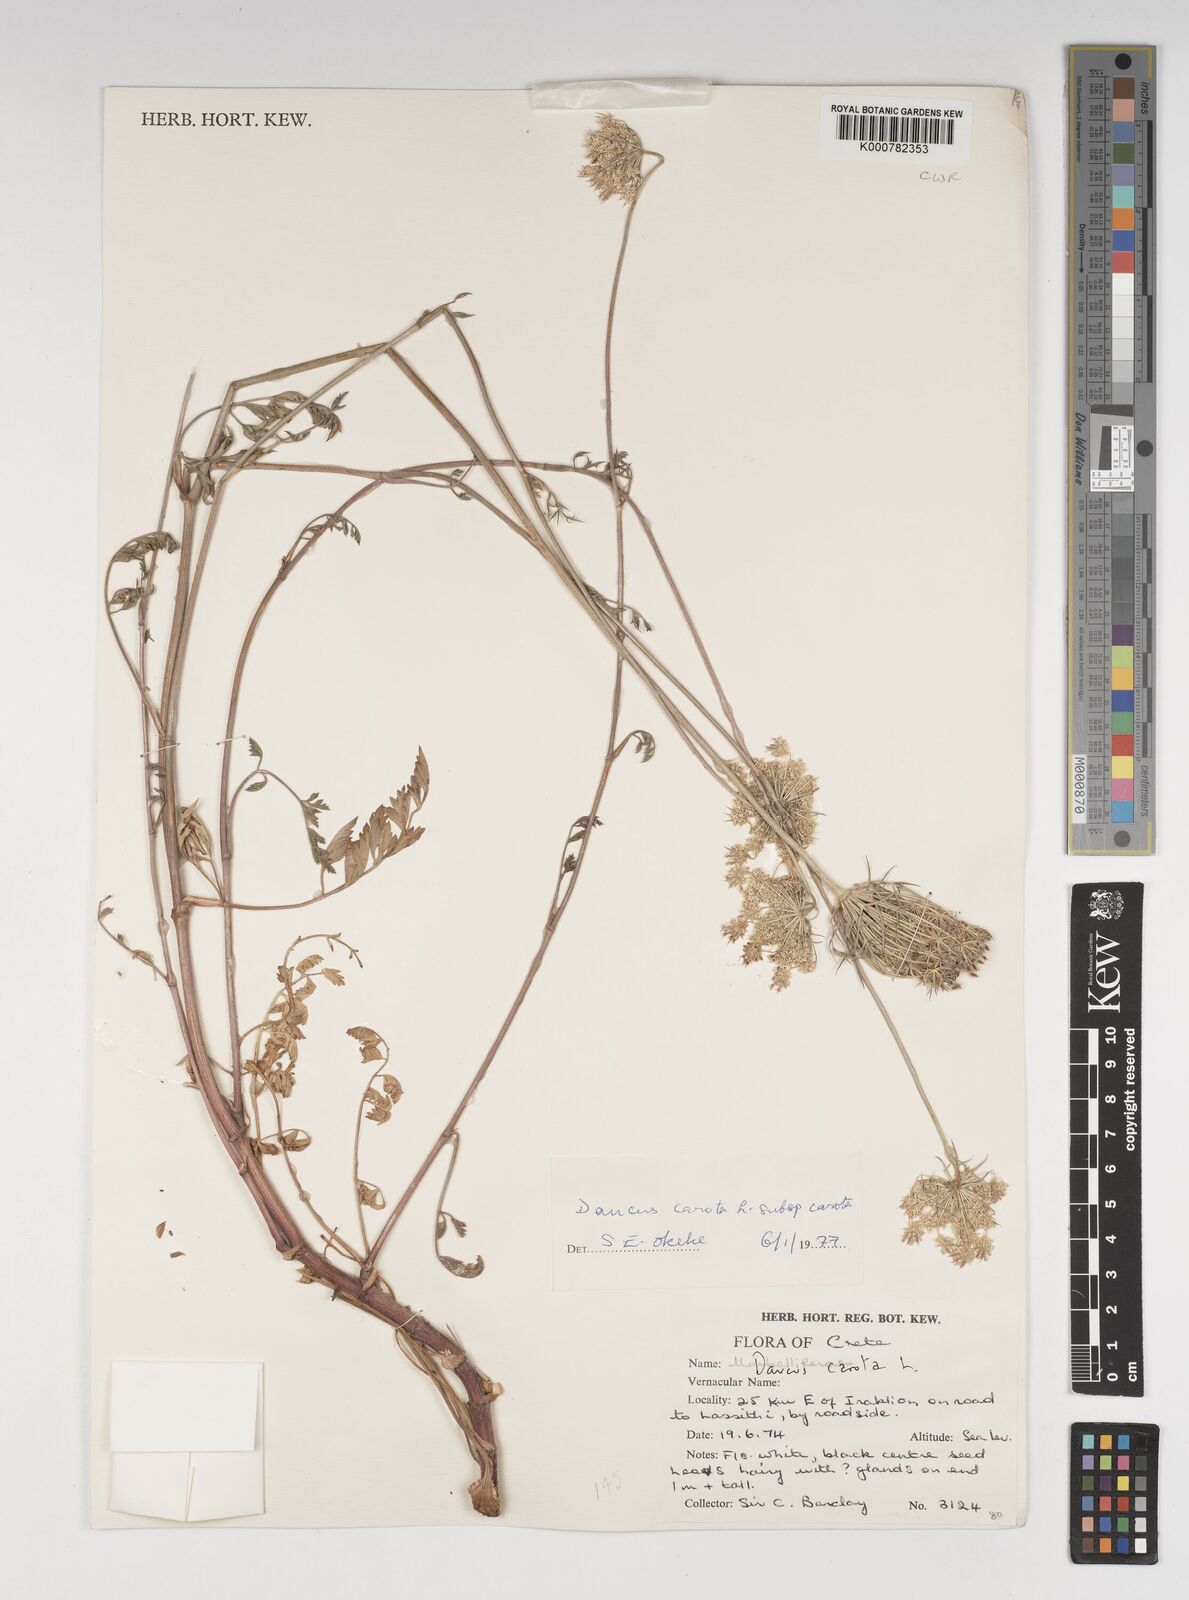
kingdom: Plantae
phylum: Tracheophyta
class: Magnoliopsida
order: Apiales
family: Apiaceae
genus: Daucus
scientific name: Daucus carota
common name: Wild carrot
